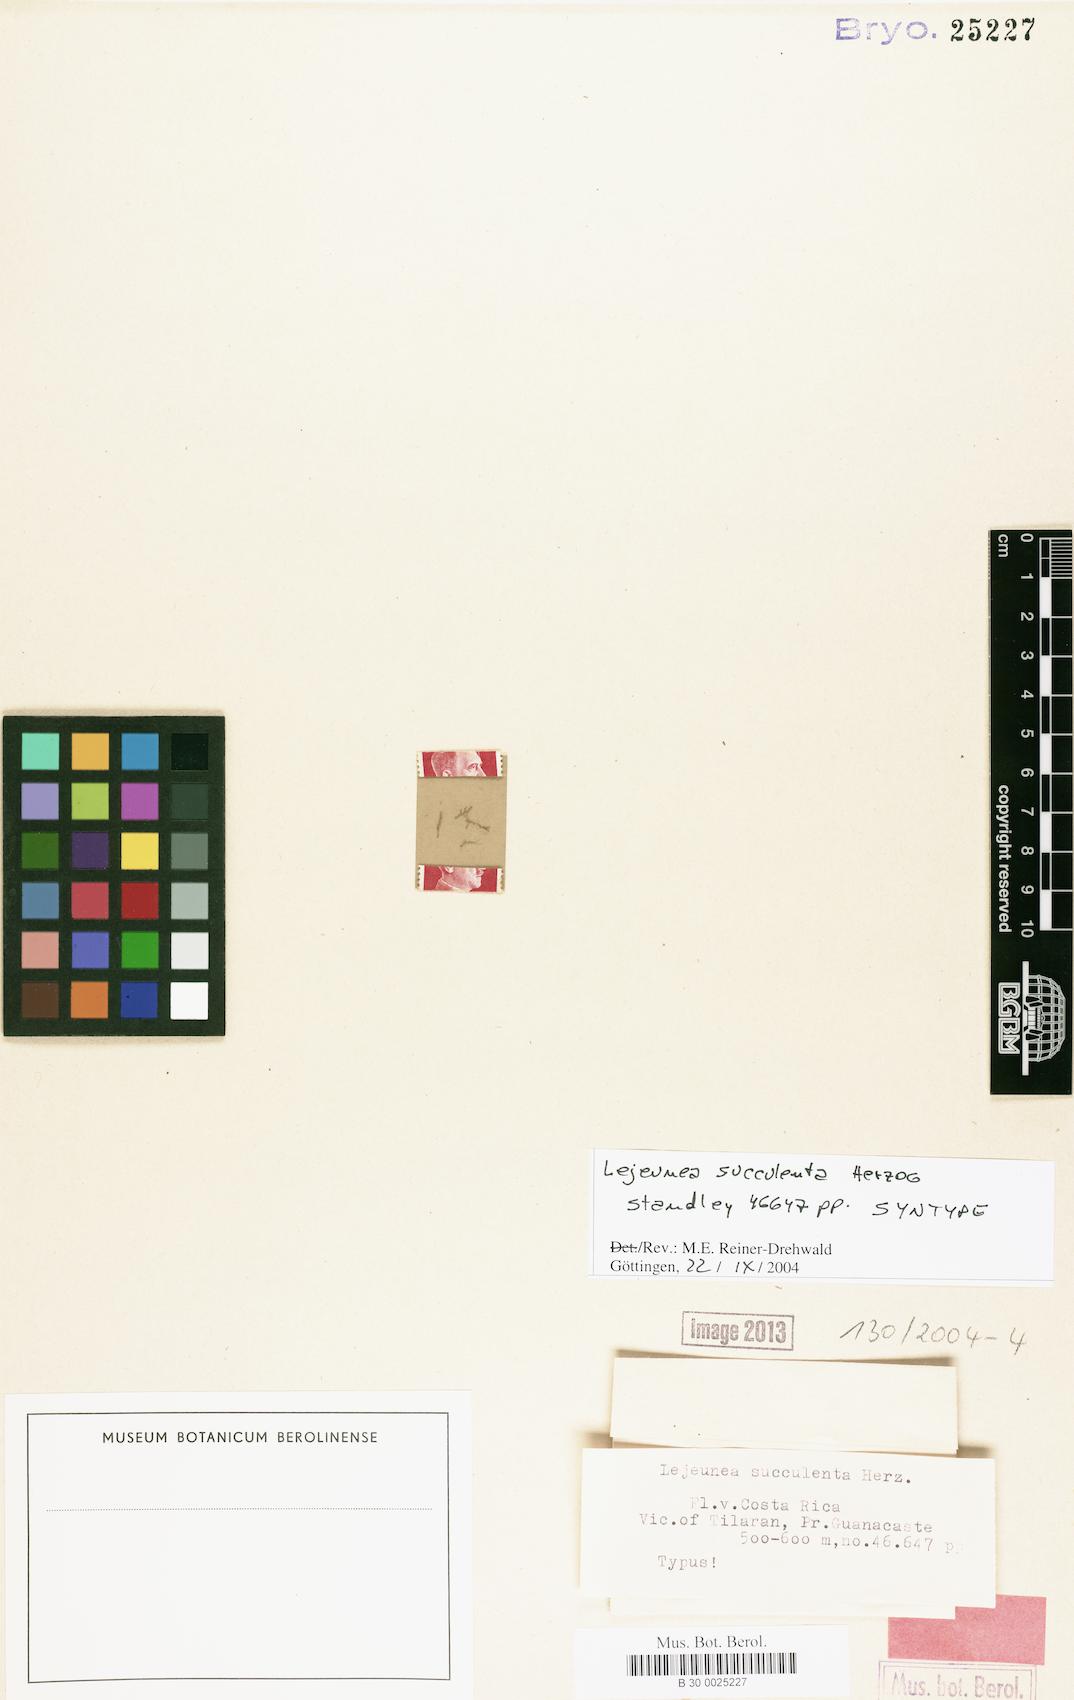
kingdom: Plantae
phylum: Marchantiophyta
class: Jungermanniopsida
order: Porellales
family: Lejeuneaceae
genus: Lejeunea
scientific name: Lejeunea succulenta
